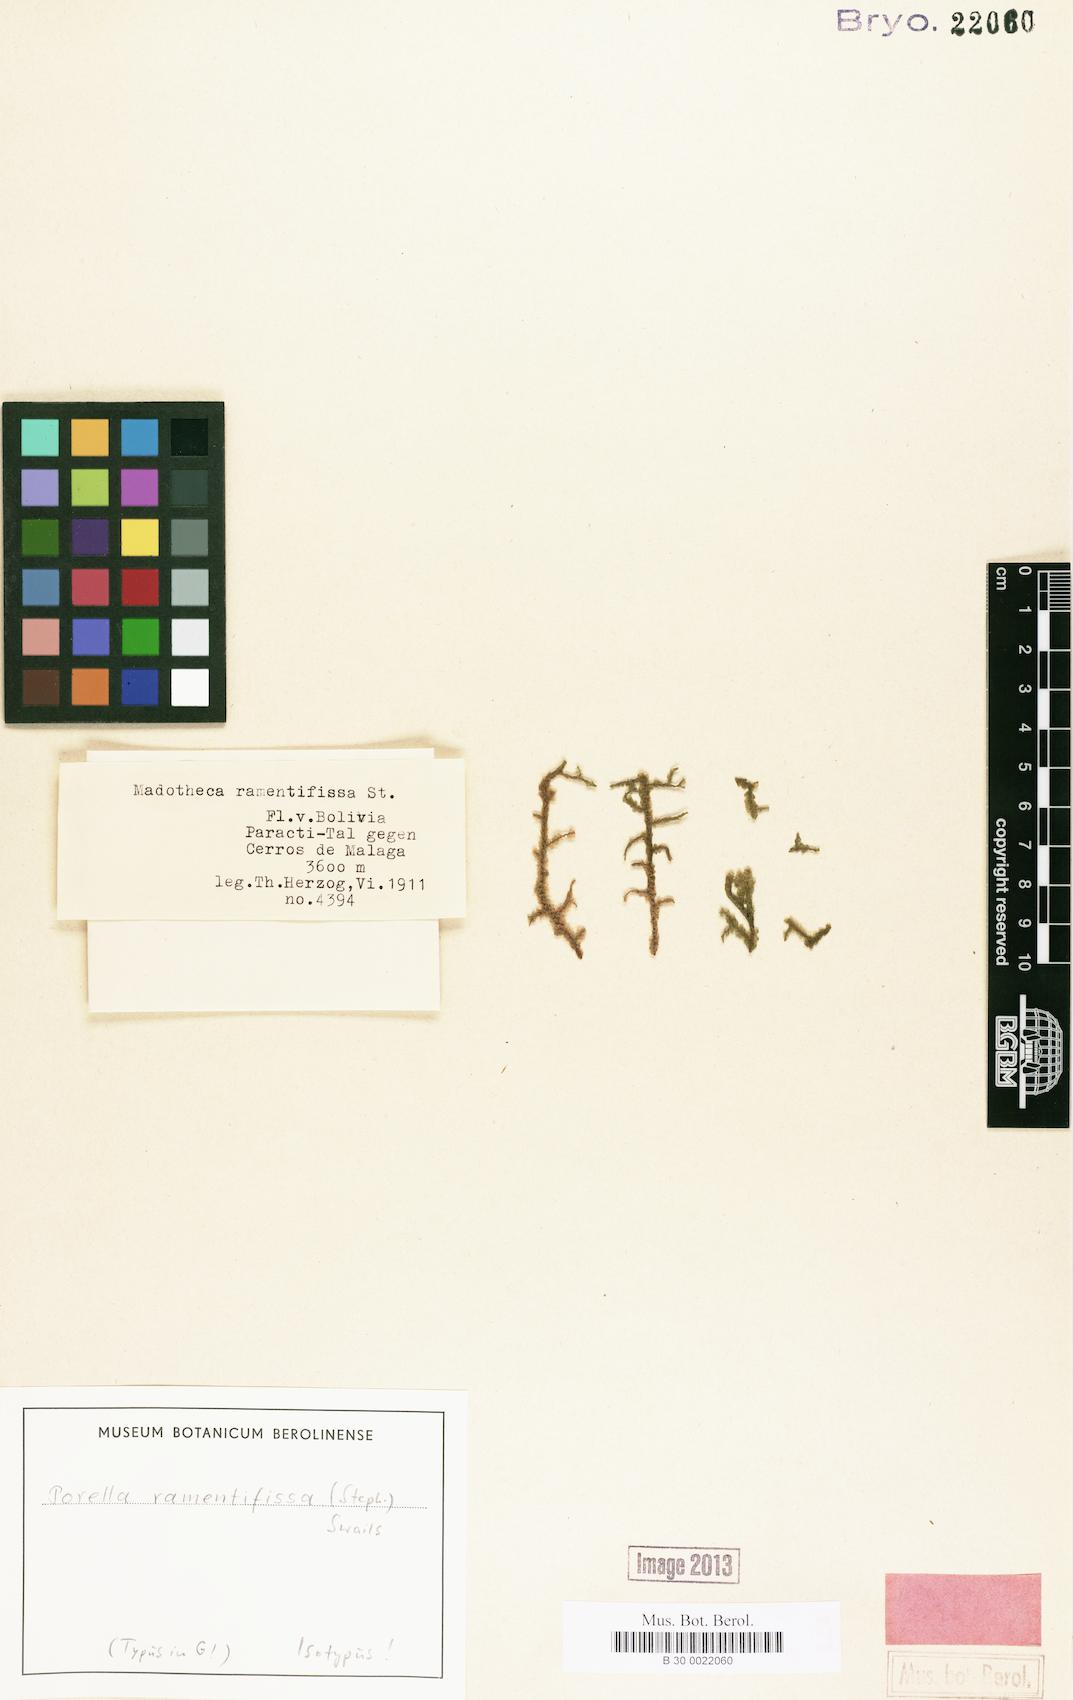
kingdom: Plantae
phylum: Marchantiophyta
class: Jungermanniopsida
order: Porellales
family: Porellaceae
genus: Porella
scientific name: Porella brachiata
